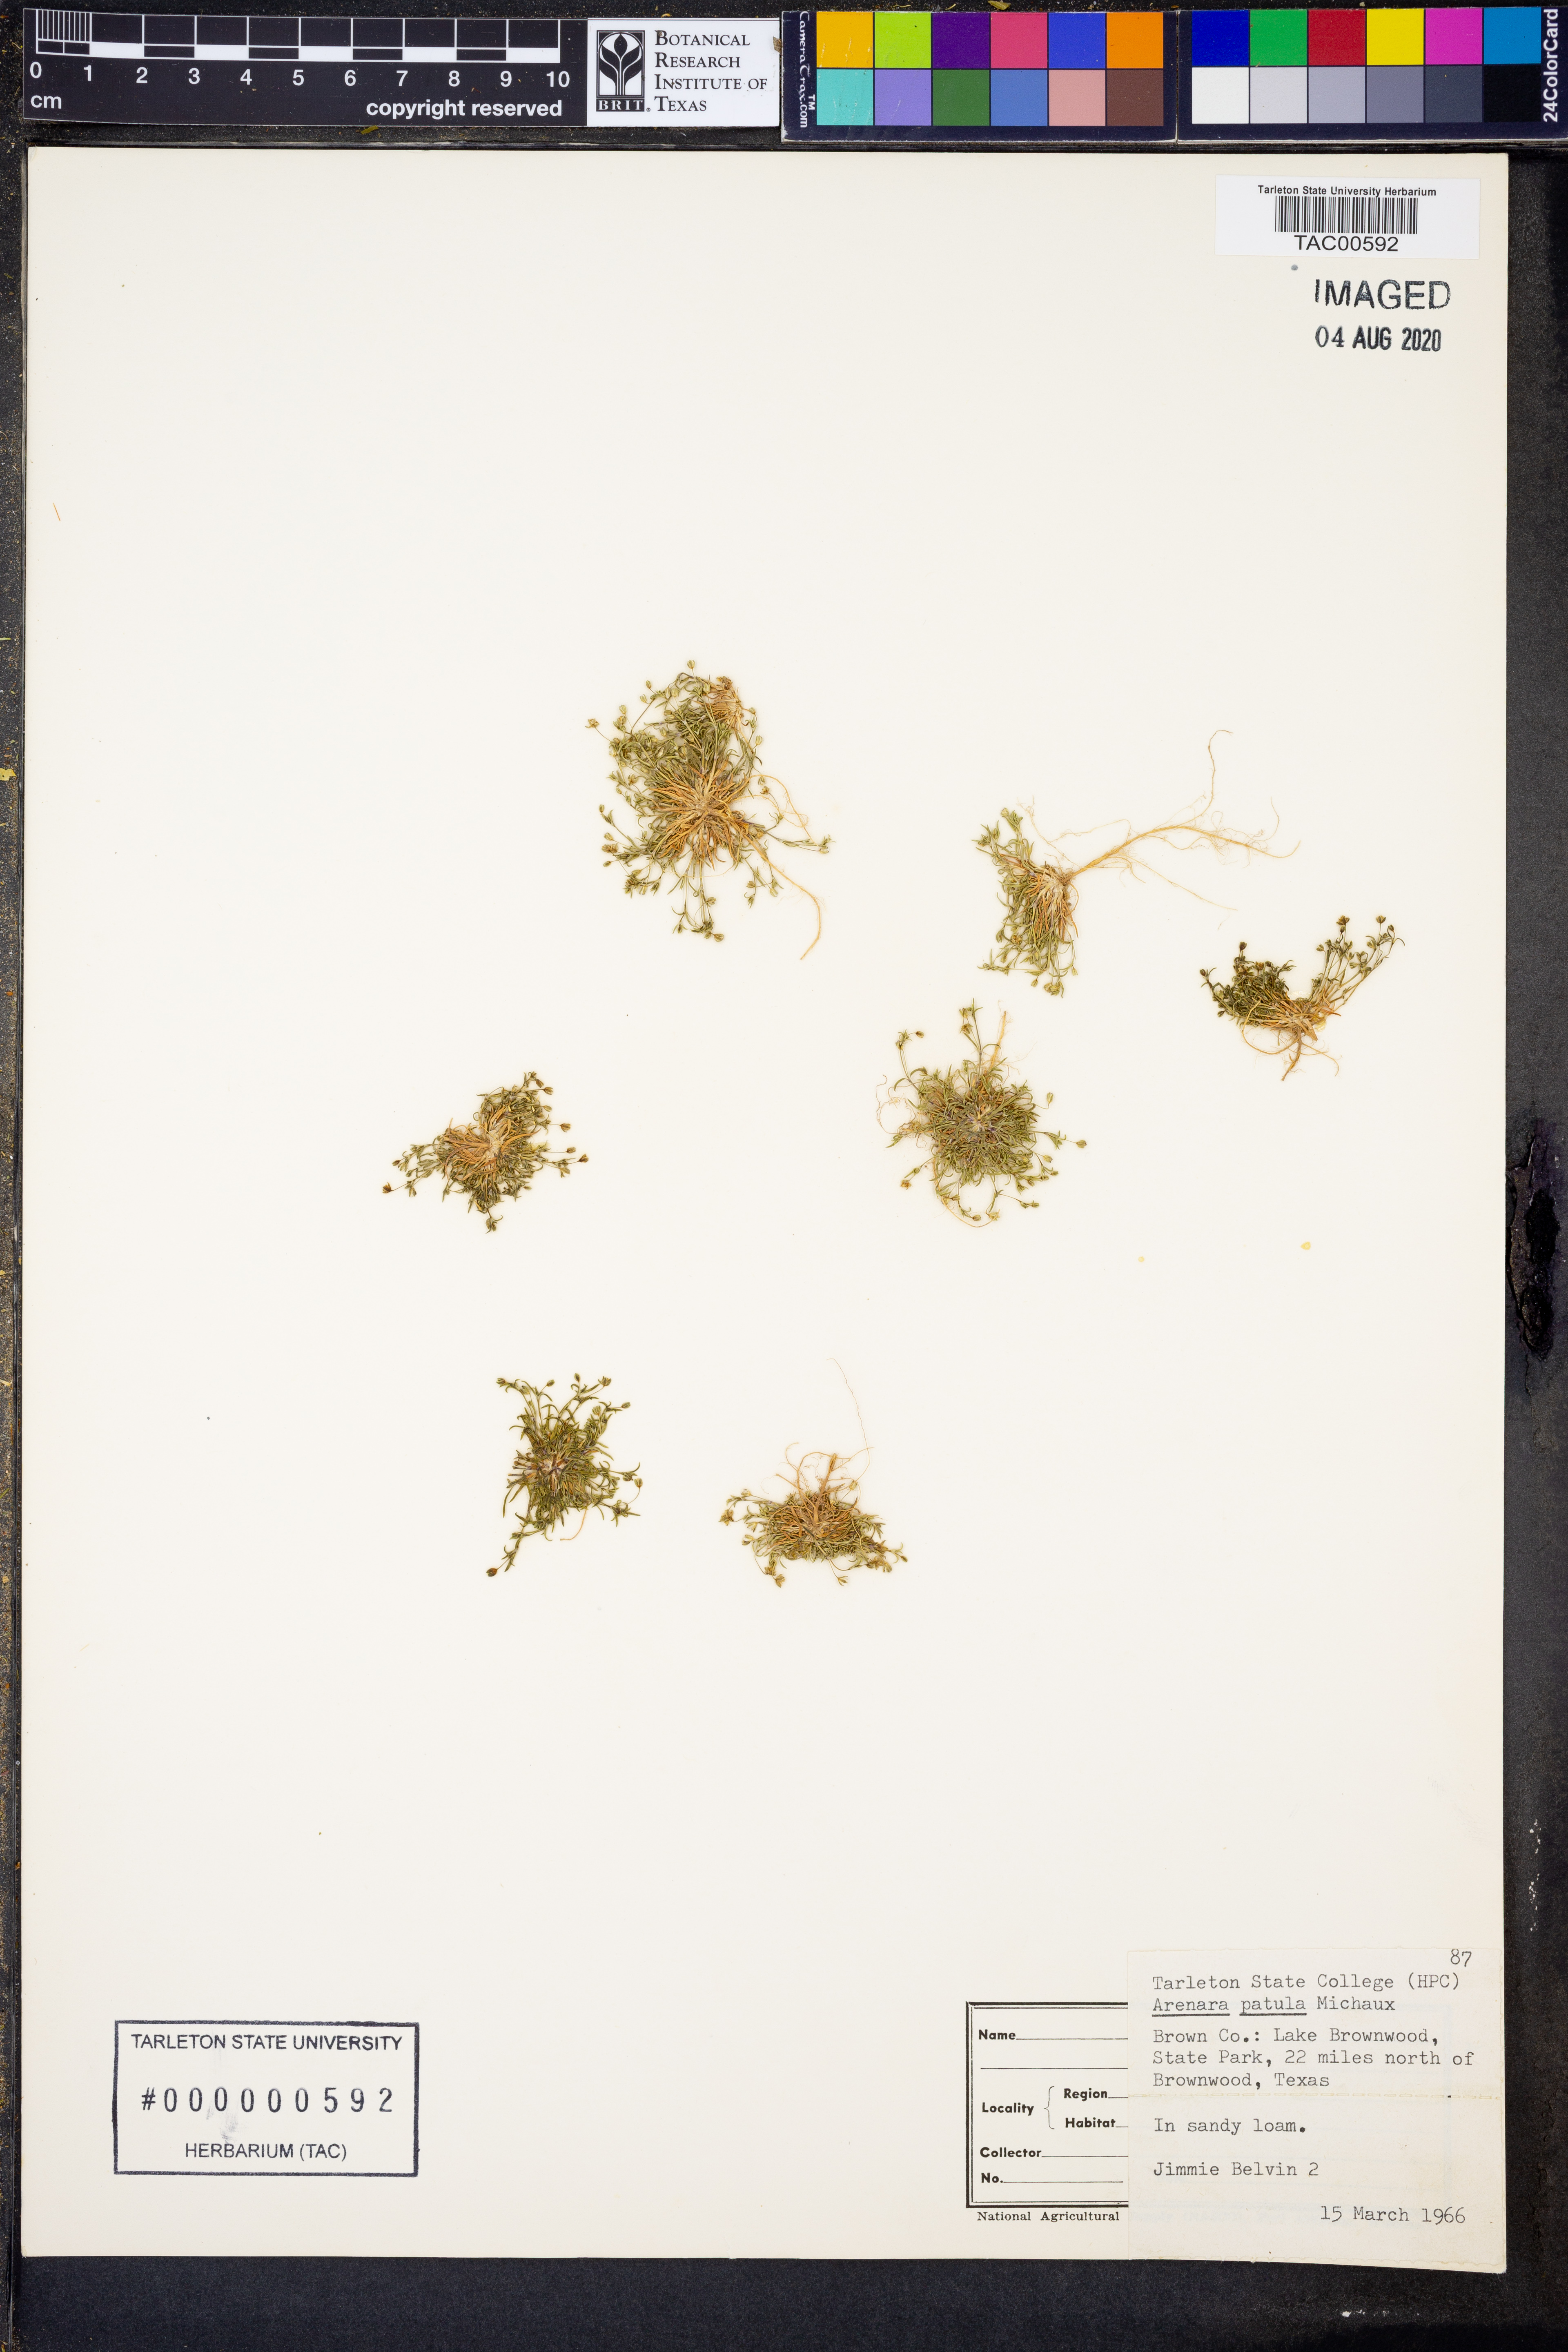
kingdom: Plantae
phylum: Tracheophyta
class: Magnoliopsida
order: Caryophyllales
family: Caryophyllaceae
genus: Mononeuria
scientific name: Mononeuria patula
